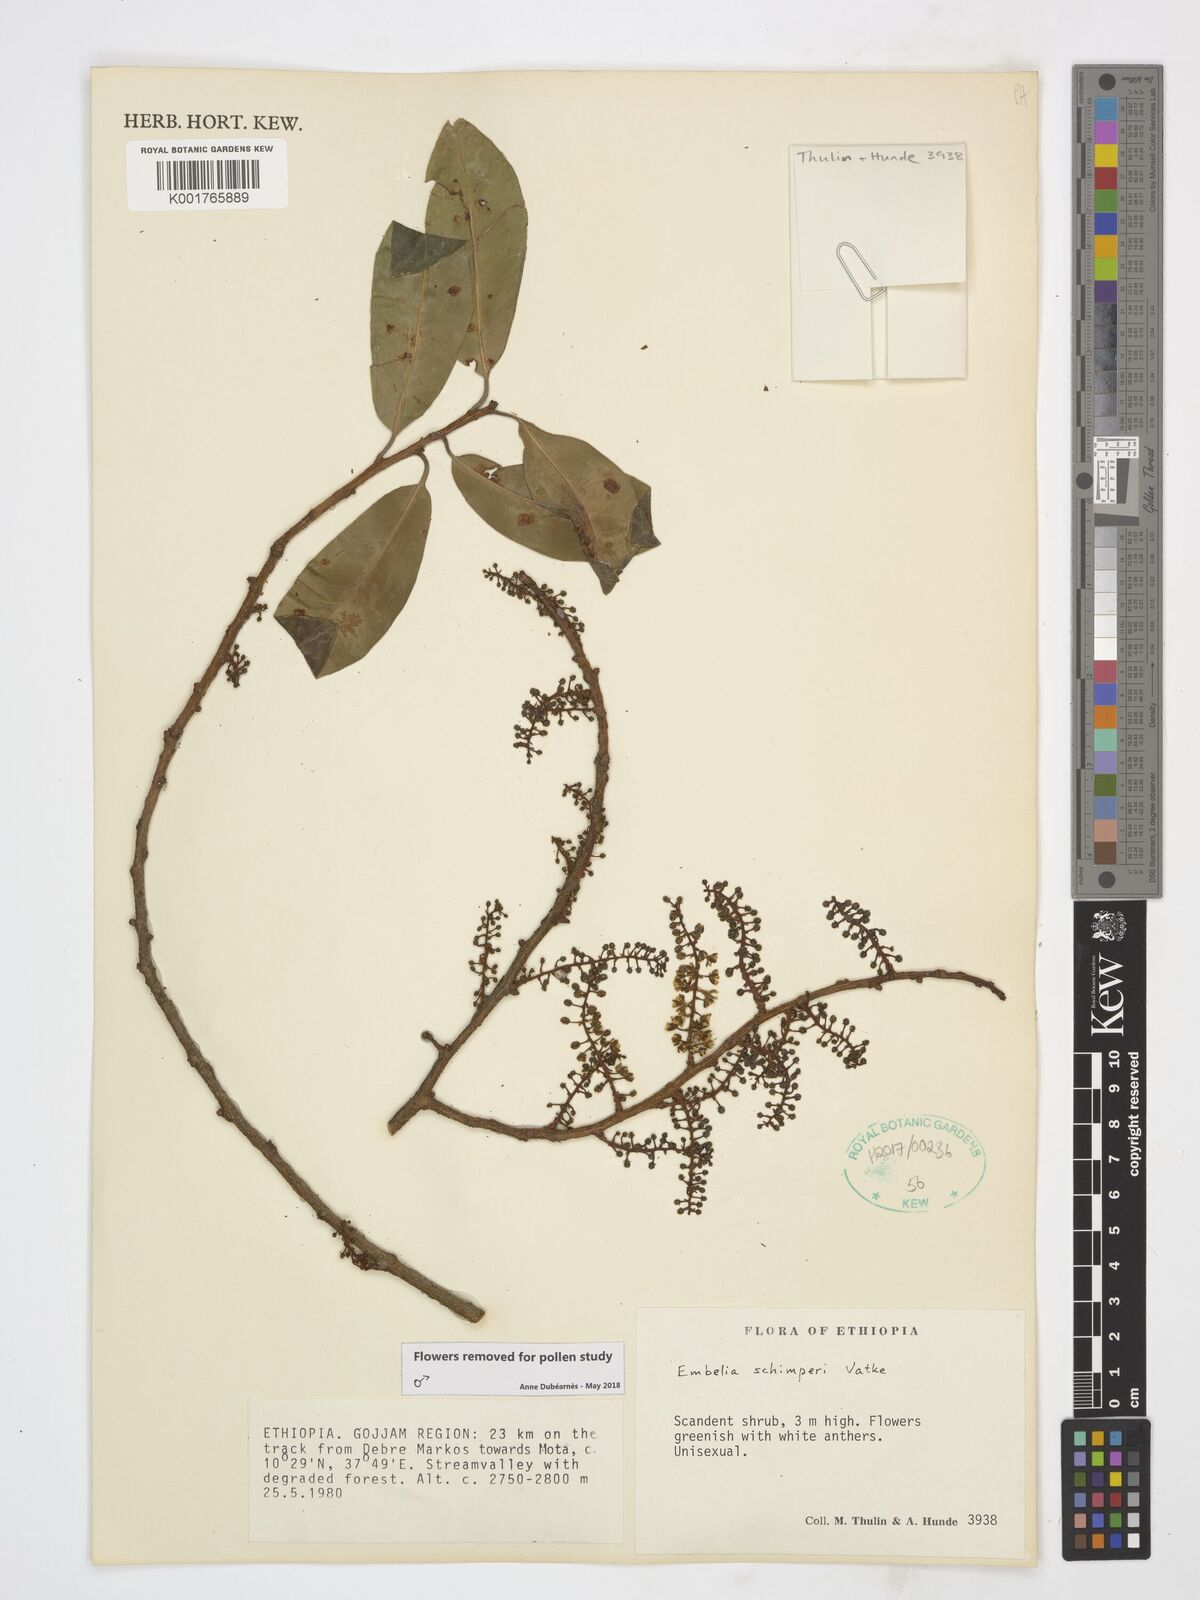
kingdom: Plantae
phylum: Tracheophyta
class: Magnoliopsida
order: Ericales
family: Primulaceae
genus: Embelia
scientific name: Embelia schimperi
